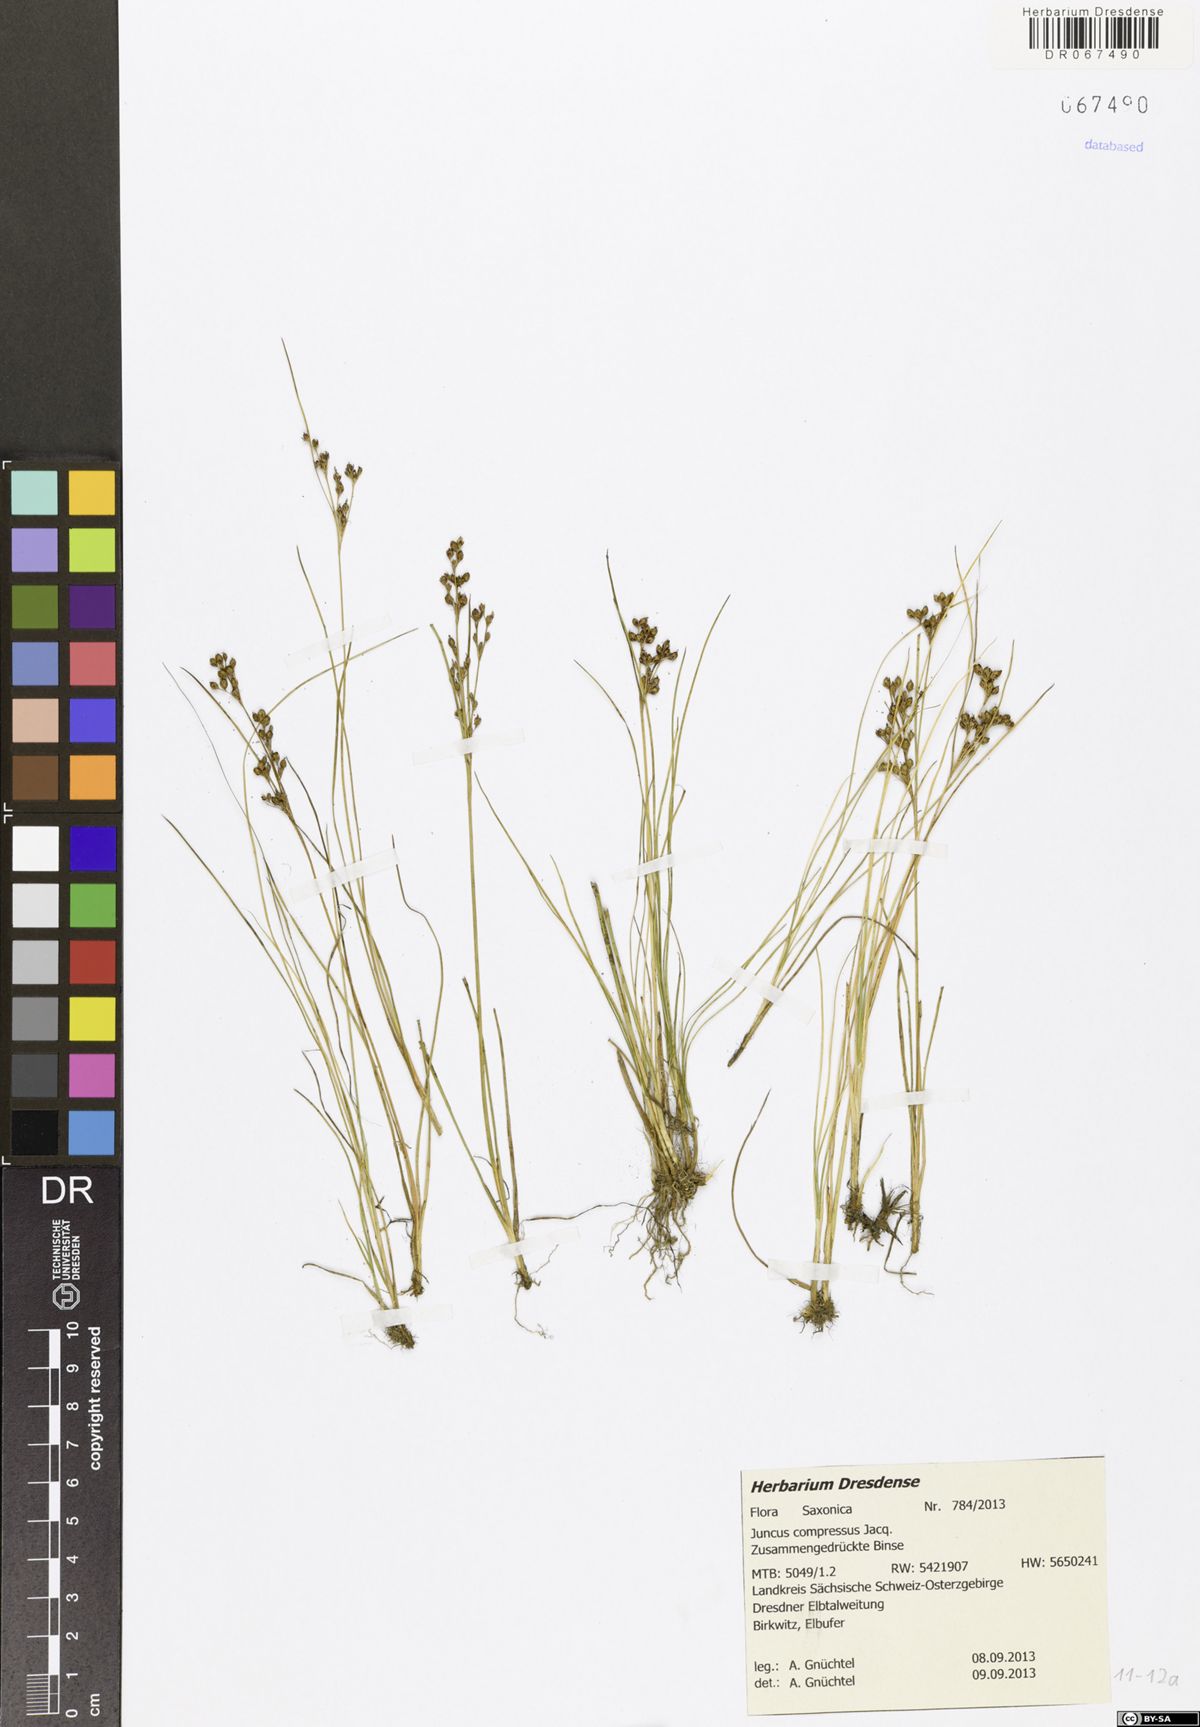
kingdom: Plantae
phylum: Tracheophyta
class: Liliopsida
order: Poales
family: Juncaceae
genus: Juncus
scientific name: Juncus compressus
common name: Round-fruited rush
